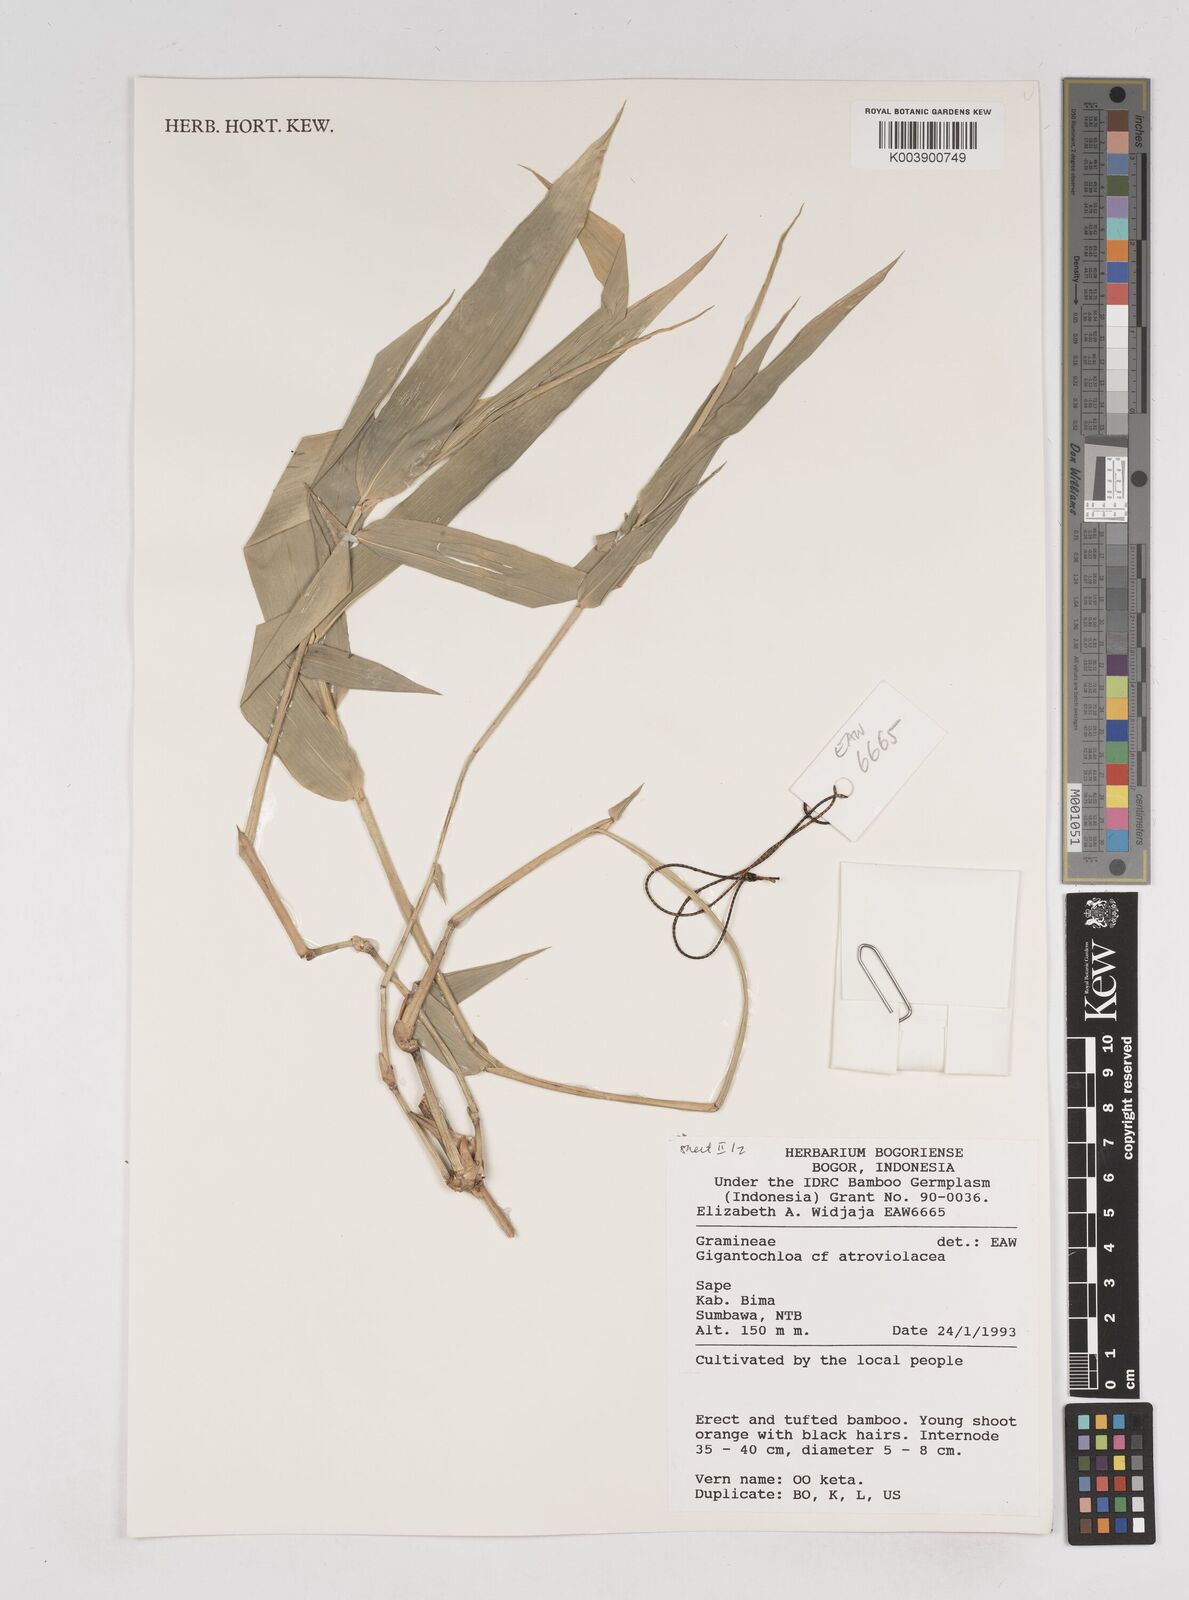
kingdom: Plantae
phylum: Tracheophyta
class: Liliopsida
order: Poales
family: Poaceae
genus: Gigantochloa
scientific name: Gigantochloa
